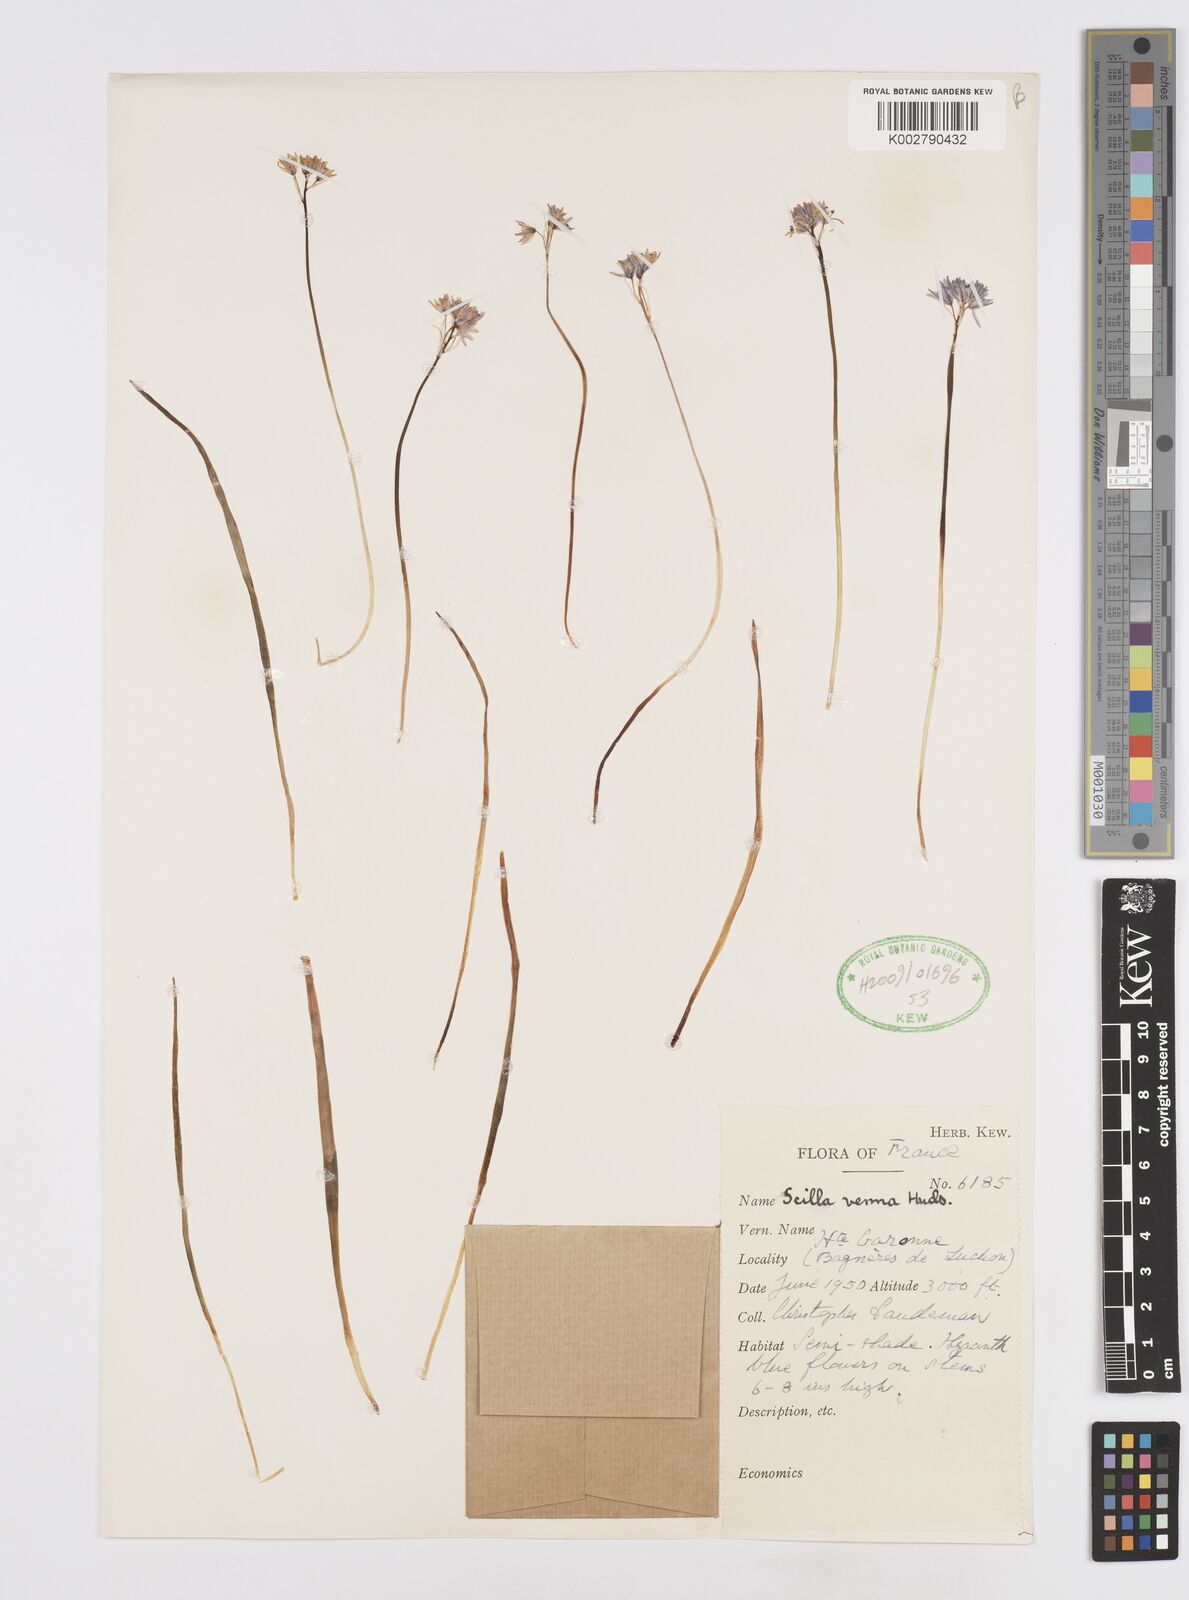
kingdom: Plantae
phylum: Tracheophyta
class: Liliopsida
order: Asparagales
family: Asparagaceae
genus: Scilla
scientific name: Scilla verna
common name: Spring squill
